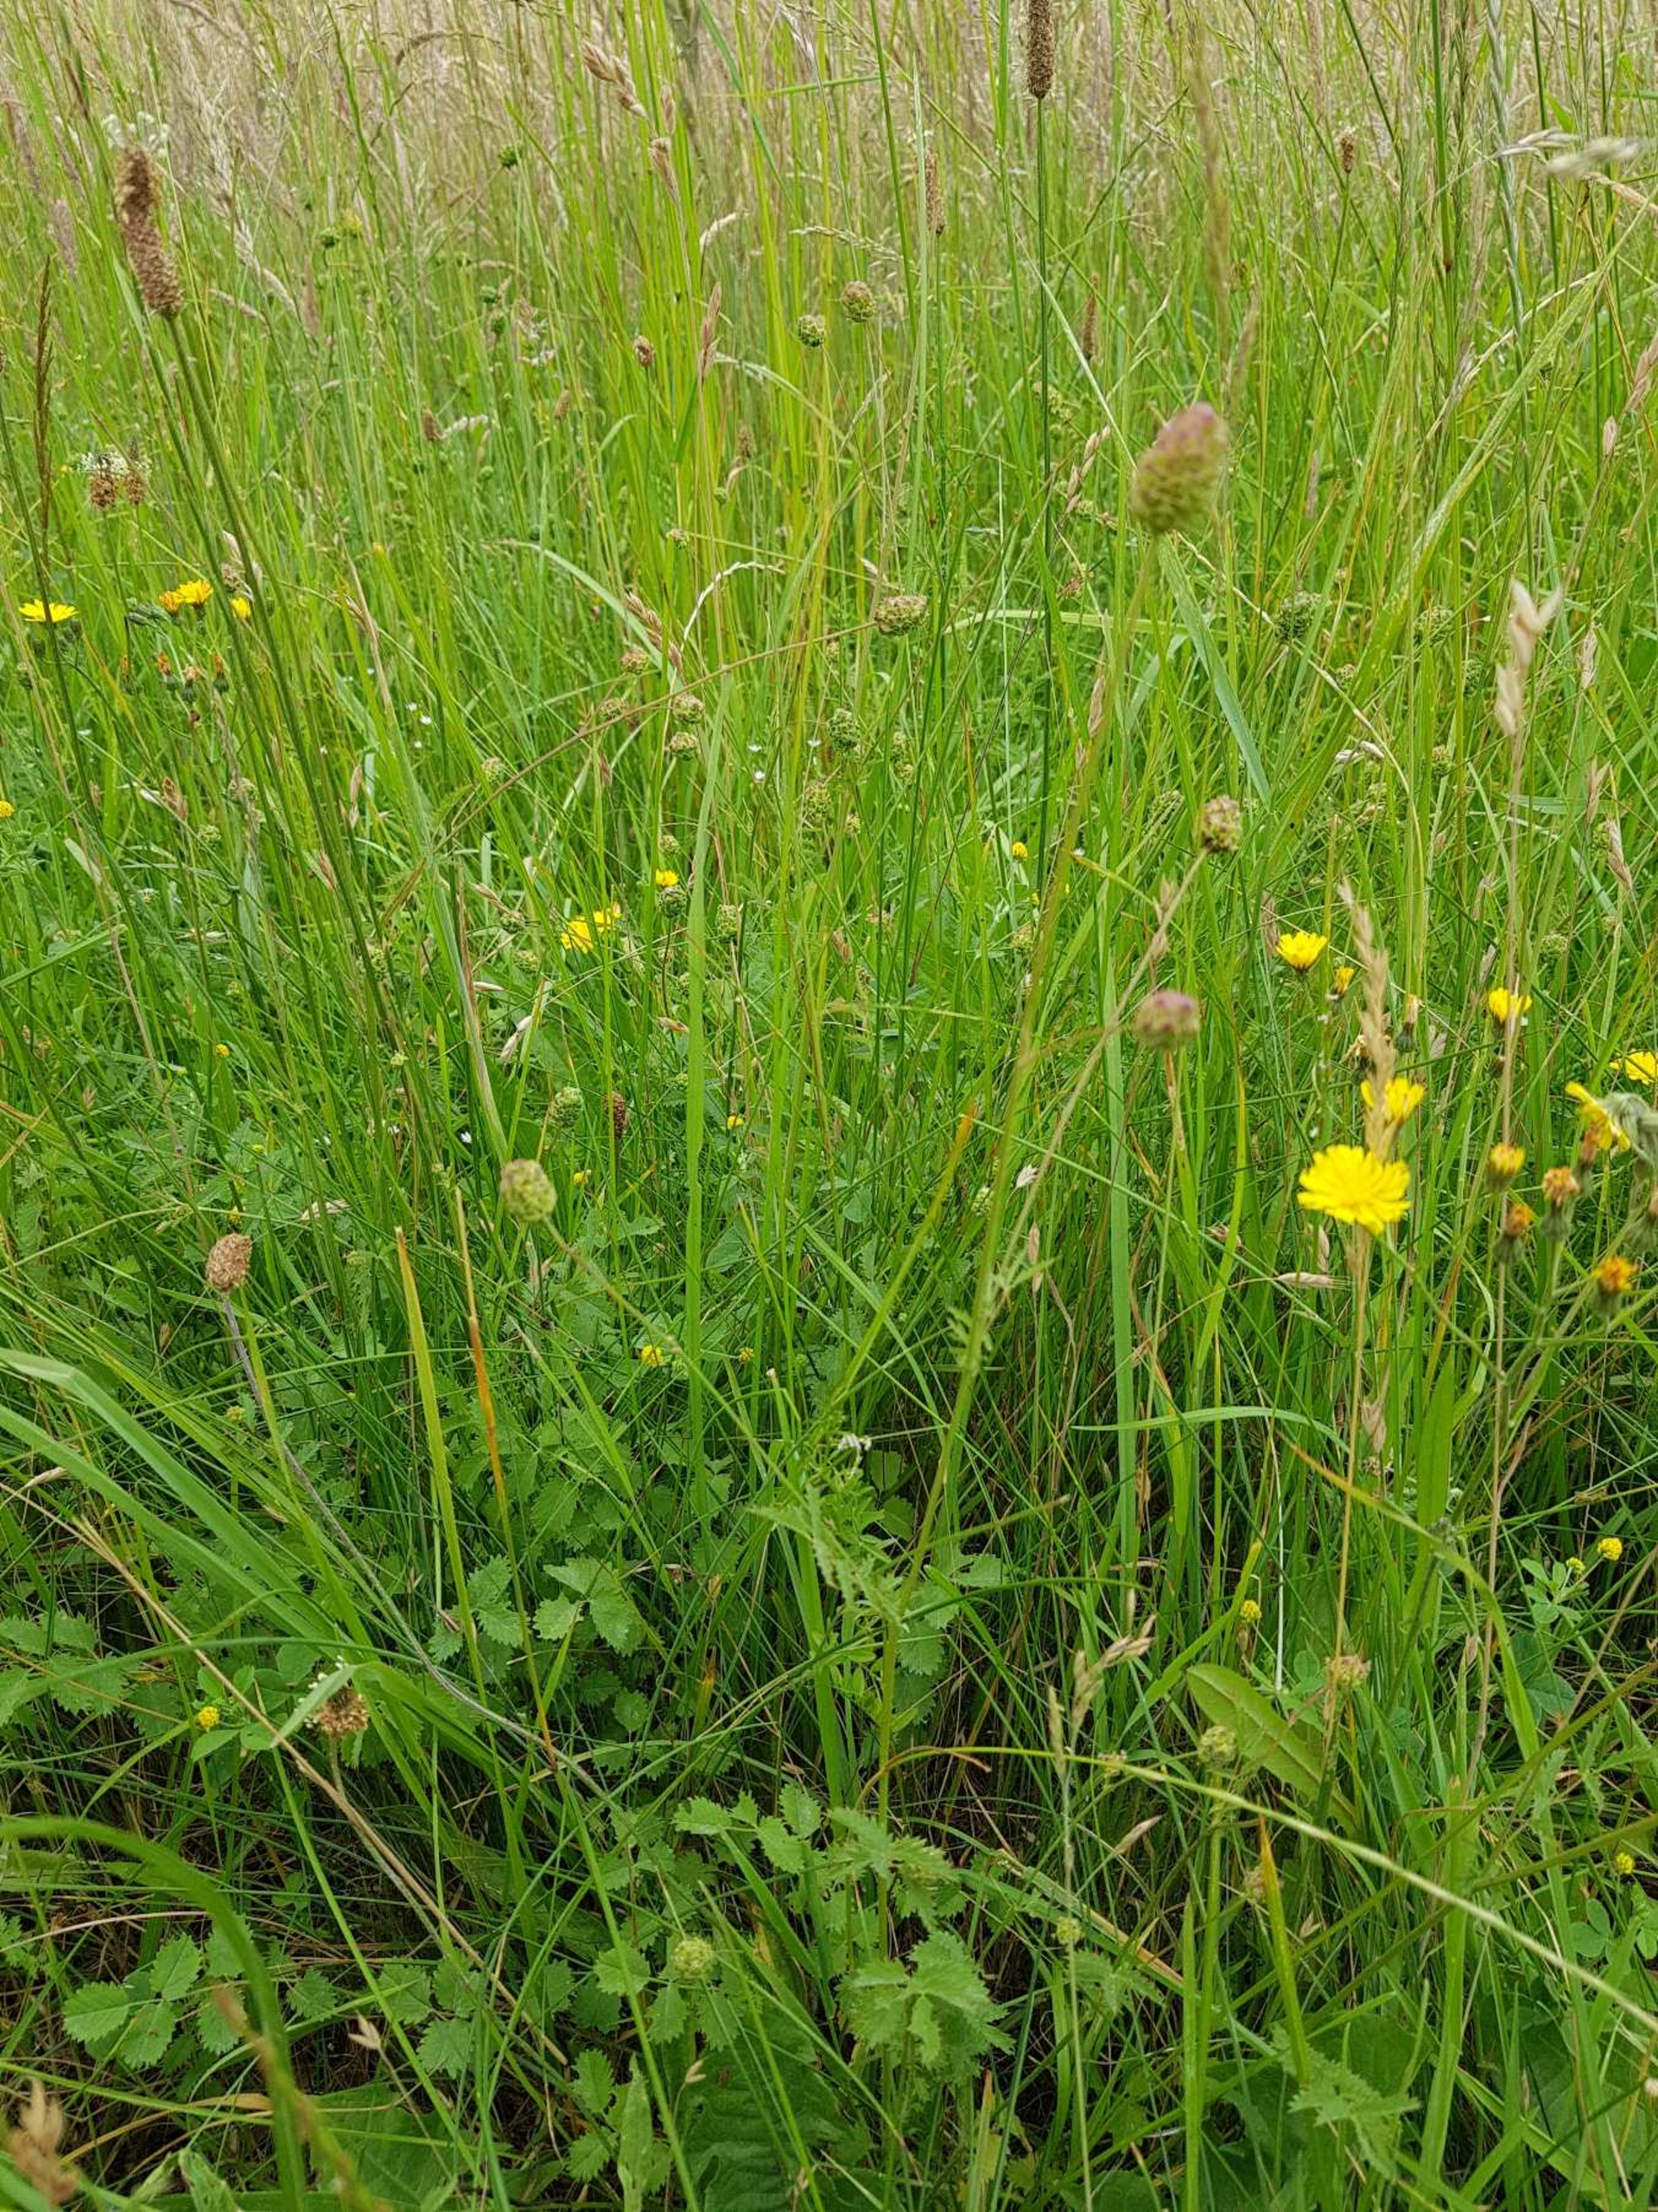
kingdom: Plantae
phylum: Tracheophyta
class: Magnoliopsida
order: Rosales
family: Rosaceae
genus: Poterium
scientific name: Poterium sanguisorba
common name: Bibernelle
